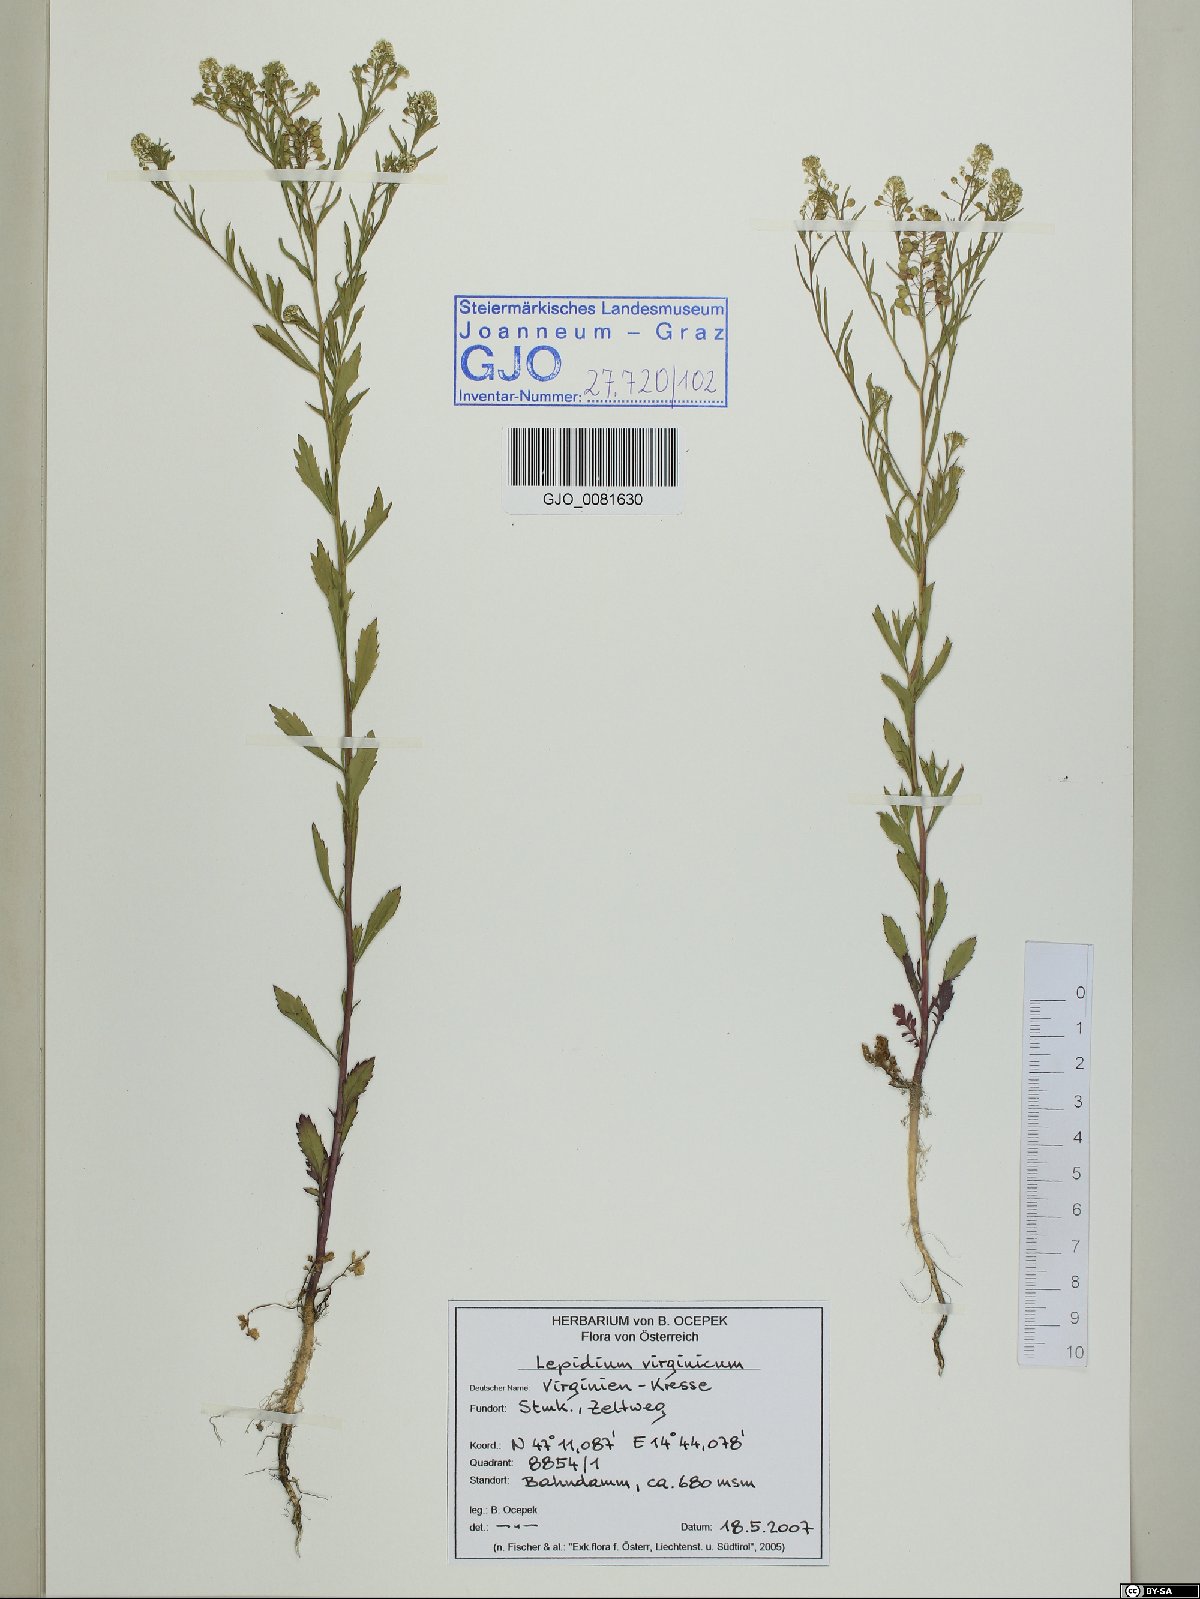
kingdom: Plantae
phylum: Tracheophyta
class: Magnoliopsida
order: Brassicales
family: Brassicaceae
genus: Lepidium
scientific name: Lepidium virginicum
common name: Least pepperwort
